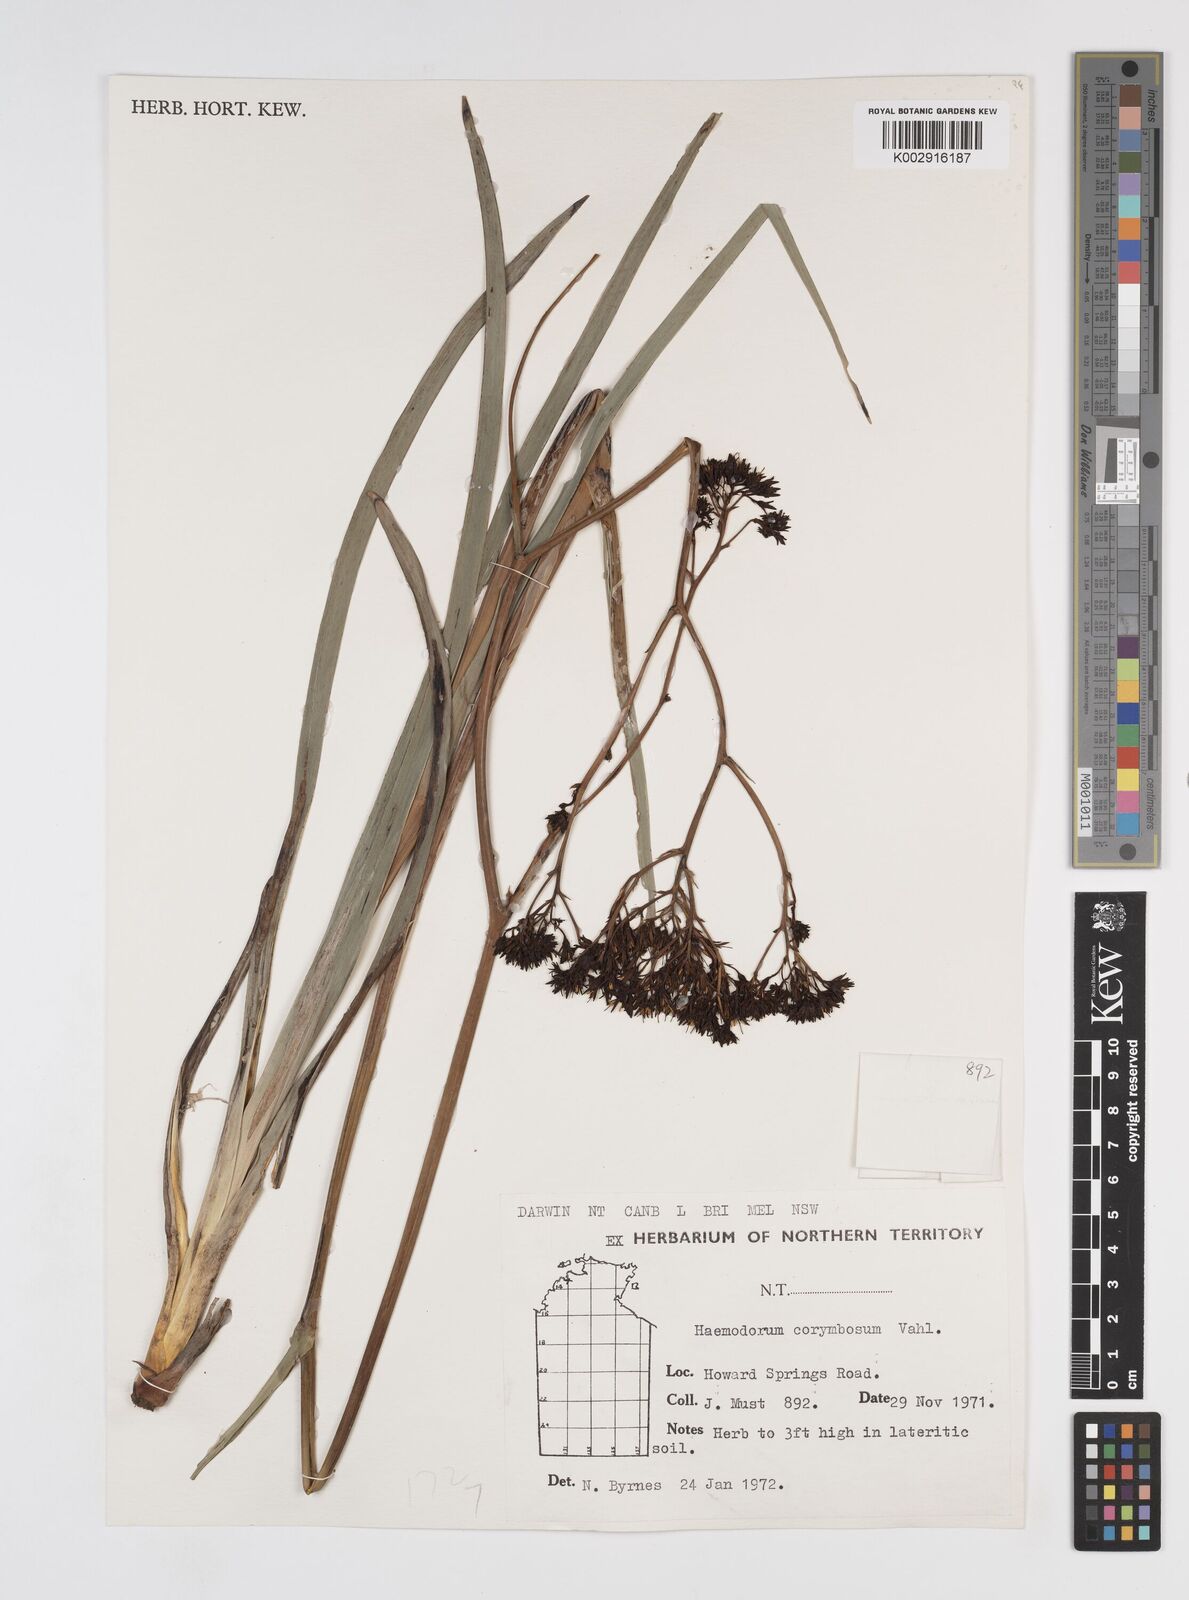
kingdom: Plantae
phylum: Tracheophyta
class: Liliopsida
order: Commelinales
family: Haemodoraceae
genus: Haemodorum
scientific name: Haemodorum corymbosum
